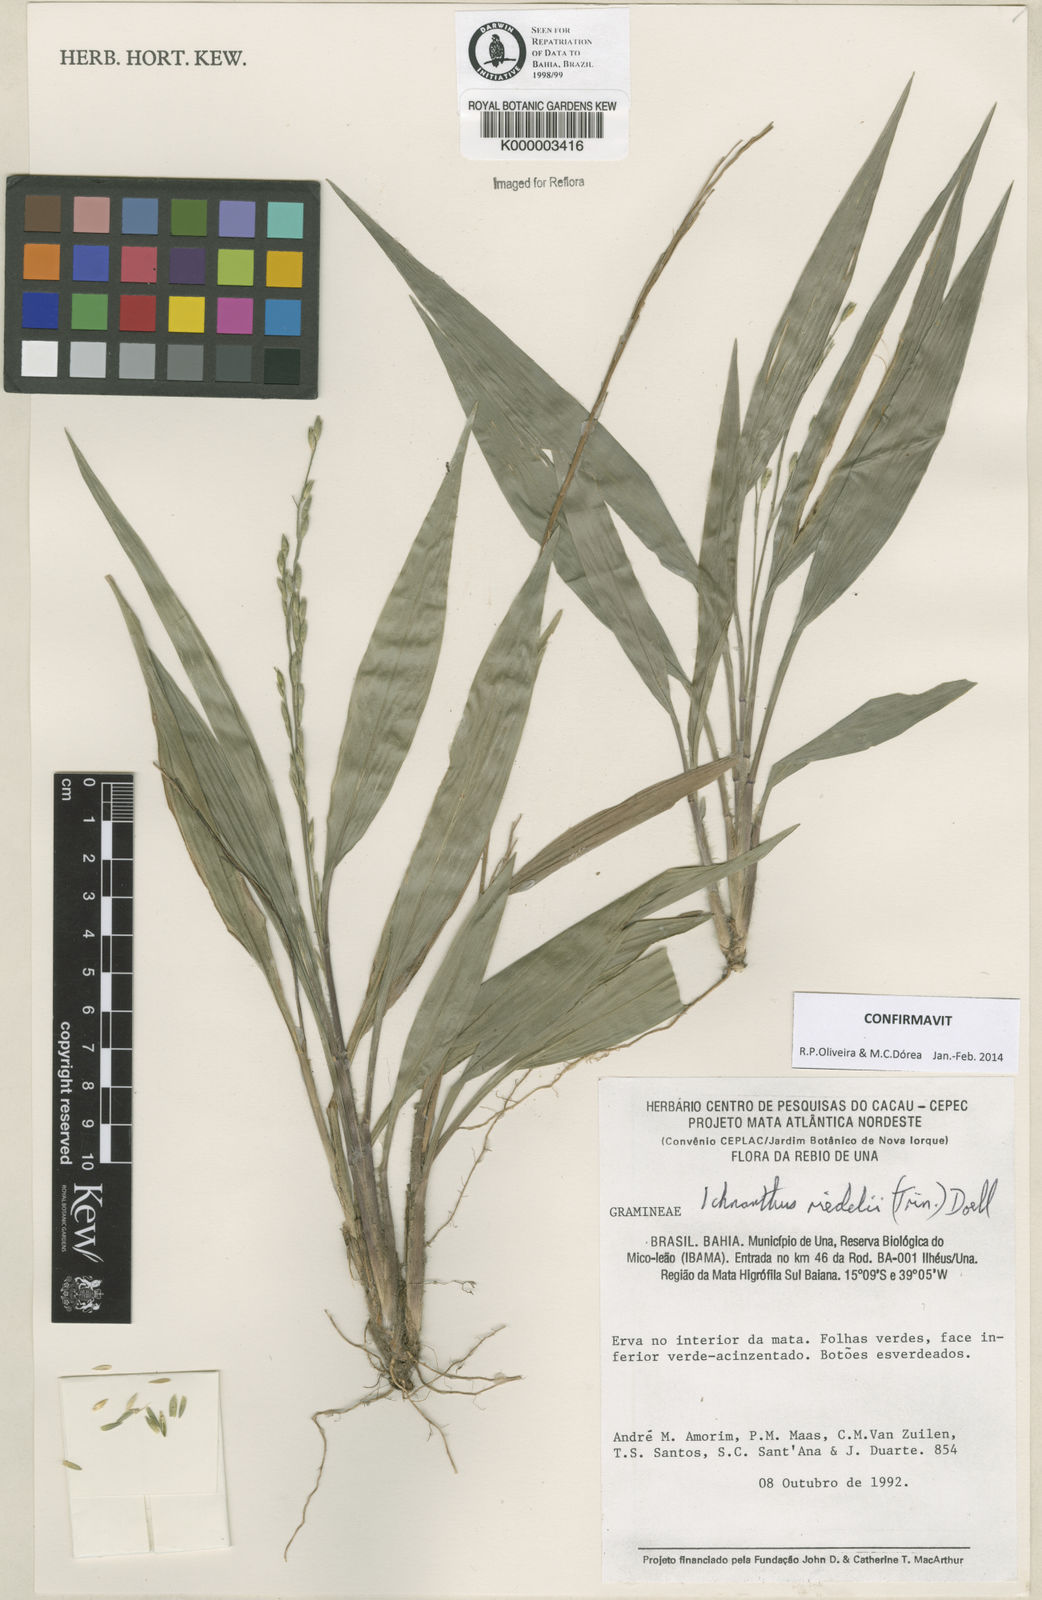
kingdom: Plantae
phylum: Tracheophyta
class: Liliopsida
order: Poales
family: Poaceae
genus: Ichnanthus
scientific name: Ichnanthus
